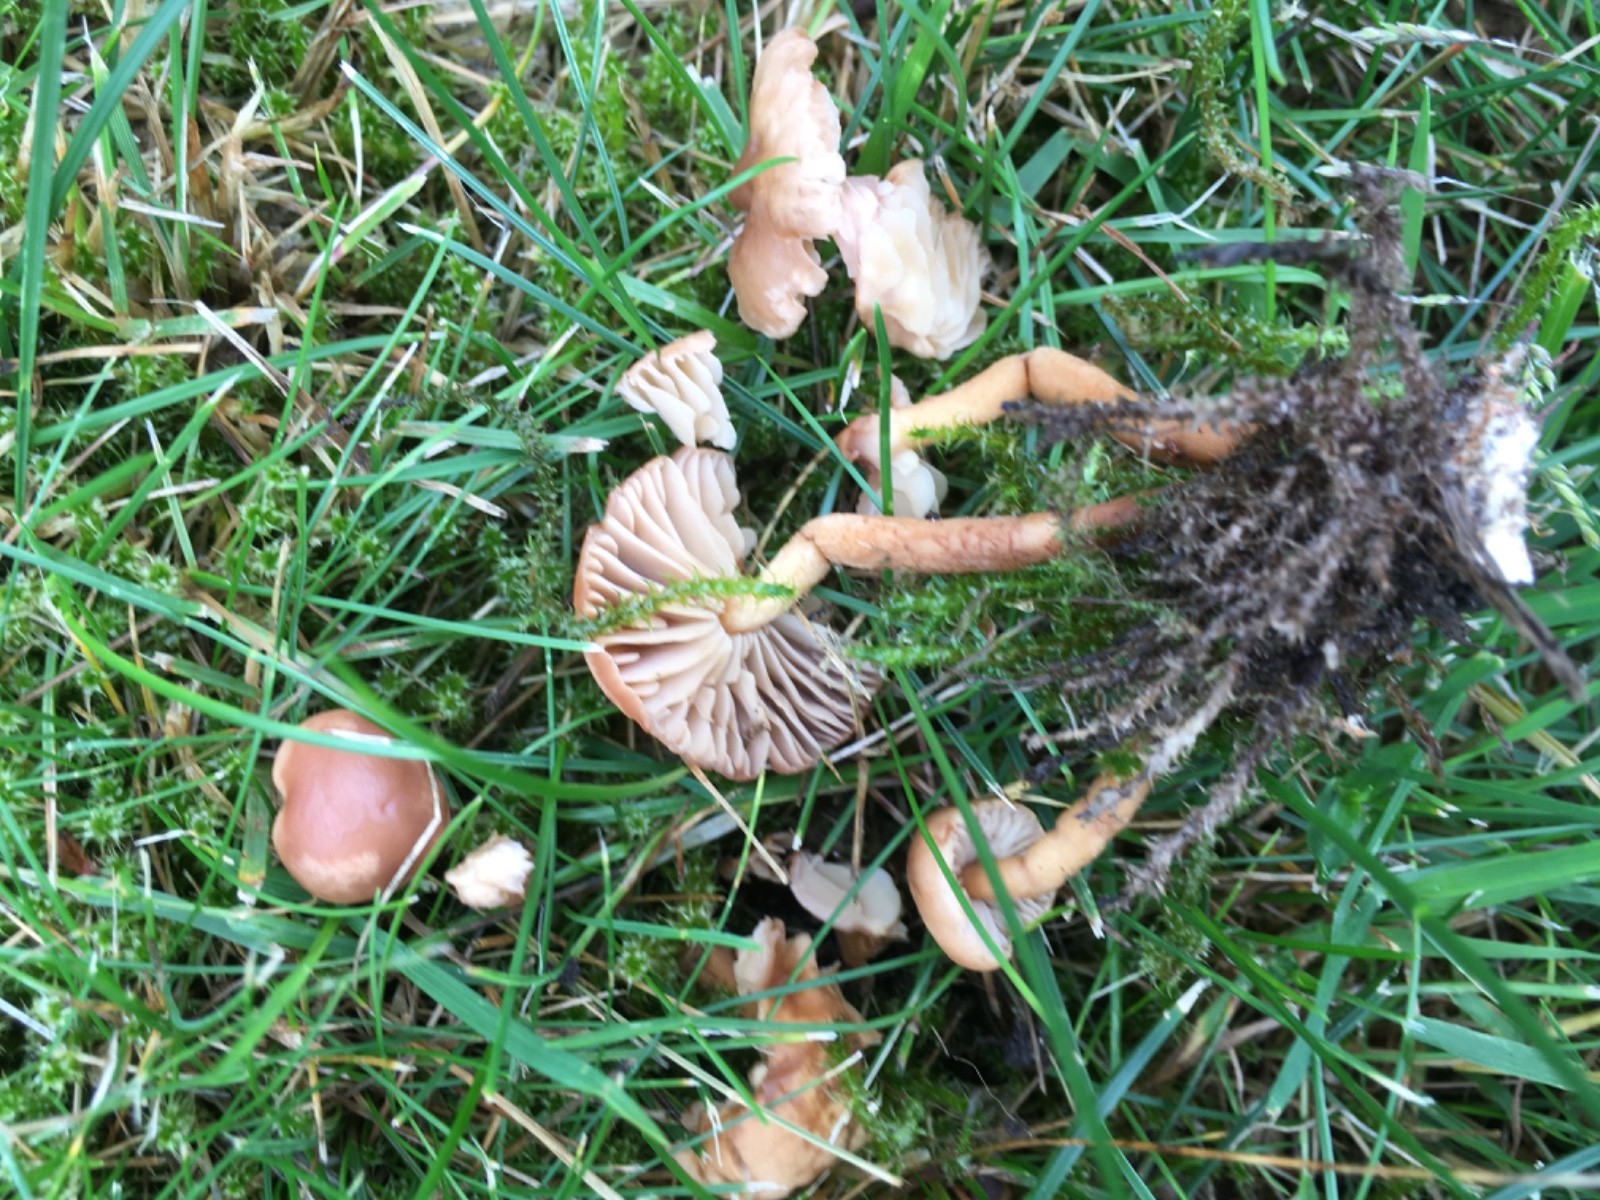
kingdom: Fungi
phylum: Basidiomycota
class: Agaricomycetes
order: Agaricales
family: Marasmiaceae
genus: Marasmius
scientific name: Marasmius oreades
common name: elledans-bruskhat
